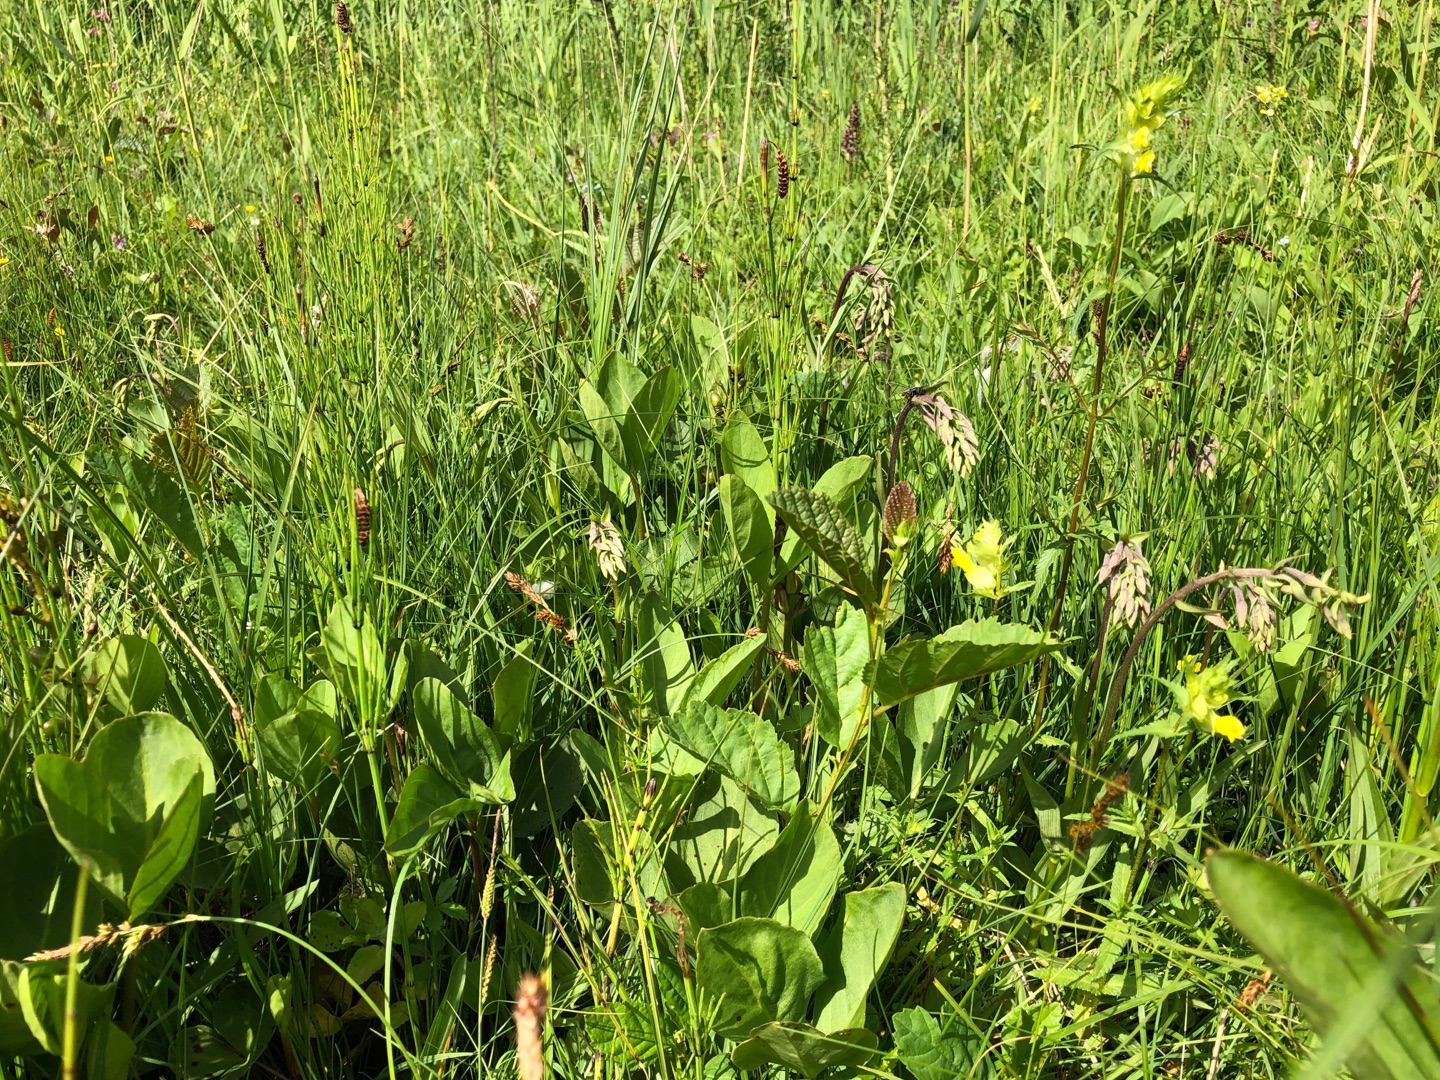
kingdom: Plantae
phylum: Tracheophyta
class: Liliopsida
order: Asparagales
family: Orchidaceae
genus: Epipactis
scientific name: Epipactis palustris
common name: Sump-hullæbe
